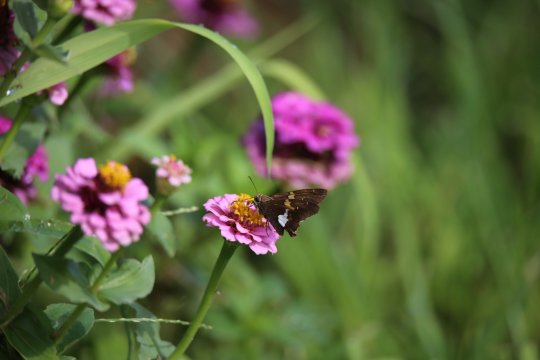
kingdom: Animalia
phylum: Arthropoda
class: Insecta
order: Lepidoptera
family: Hesperiidae
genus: Epargyreus
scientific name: Epargyreus clarus
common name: Silver-spotted Skipper
